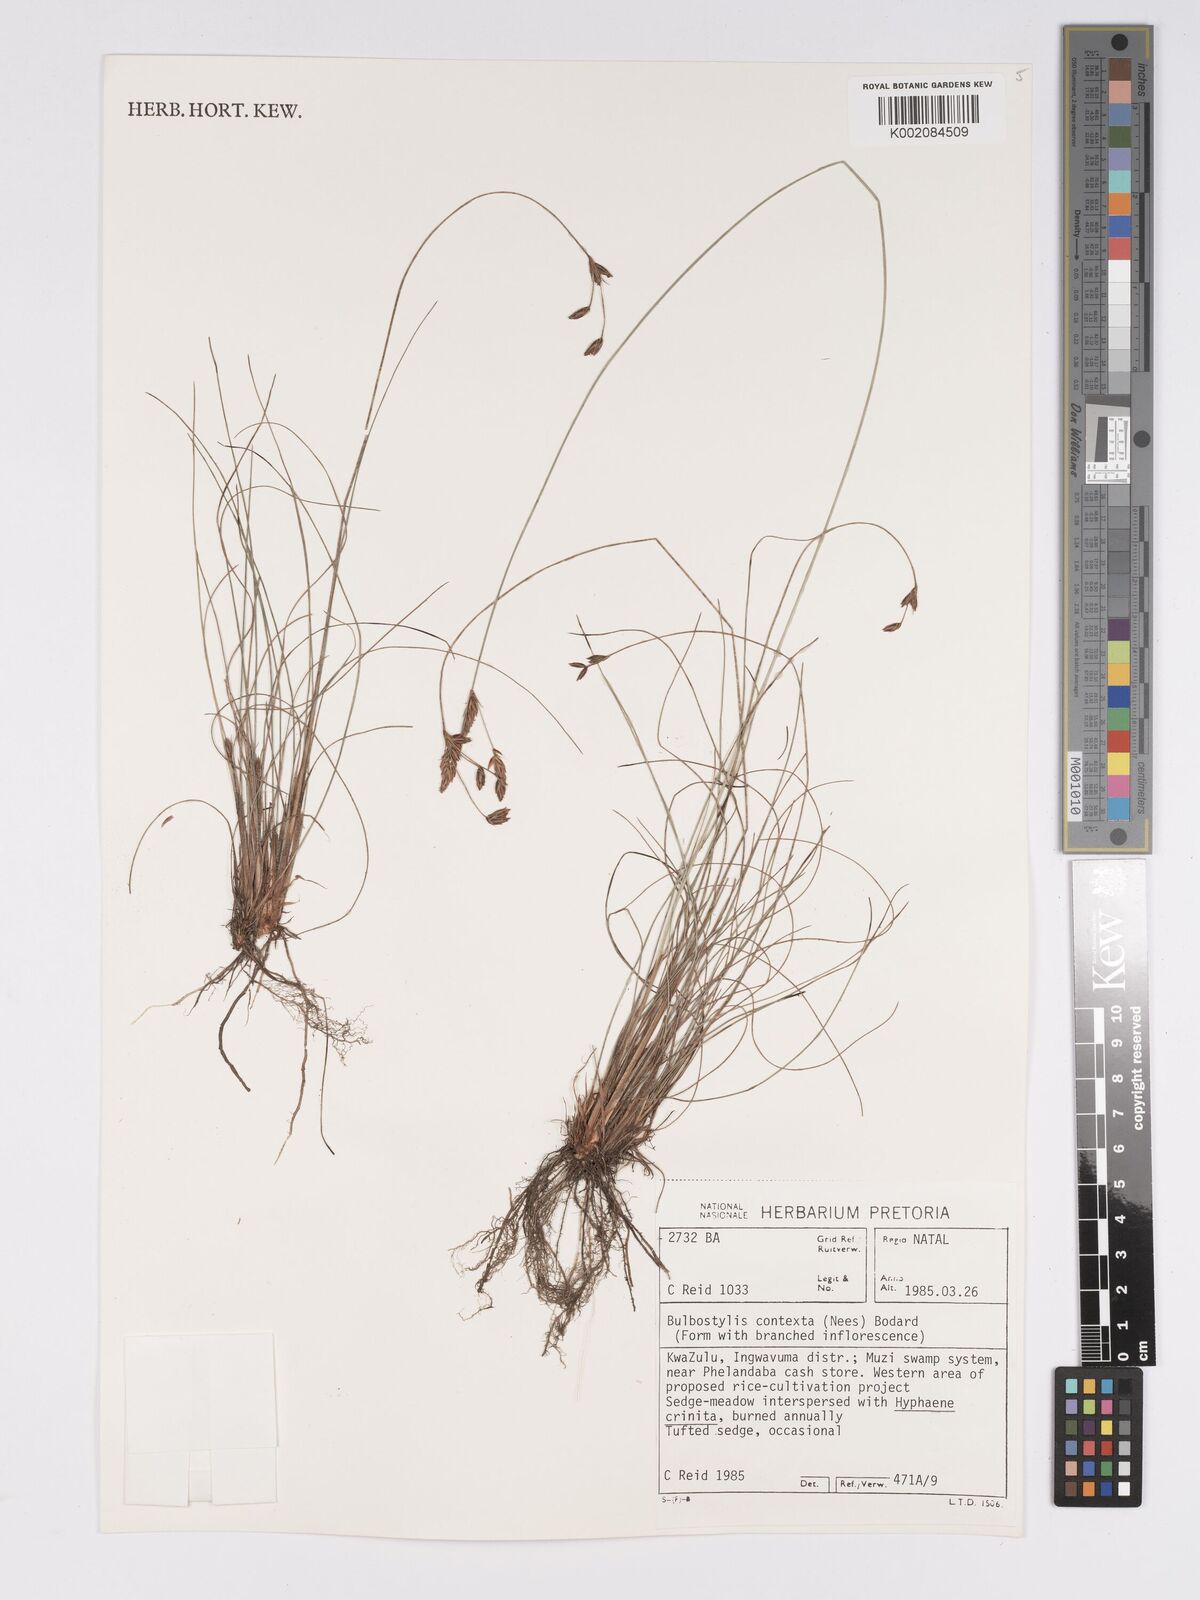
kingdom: Plantae
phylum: Tracheophyta
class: Liliopsida
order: Poales
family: Cyperaceae
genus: Bulbostylis
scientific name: Bulbostylis contexta
